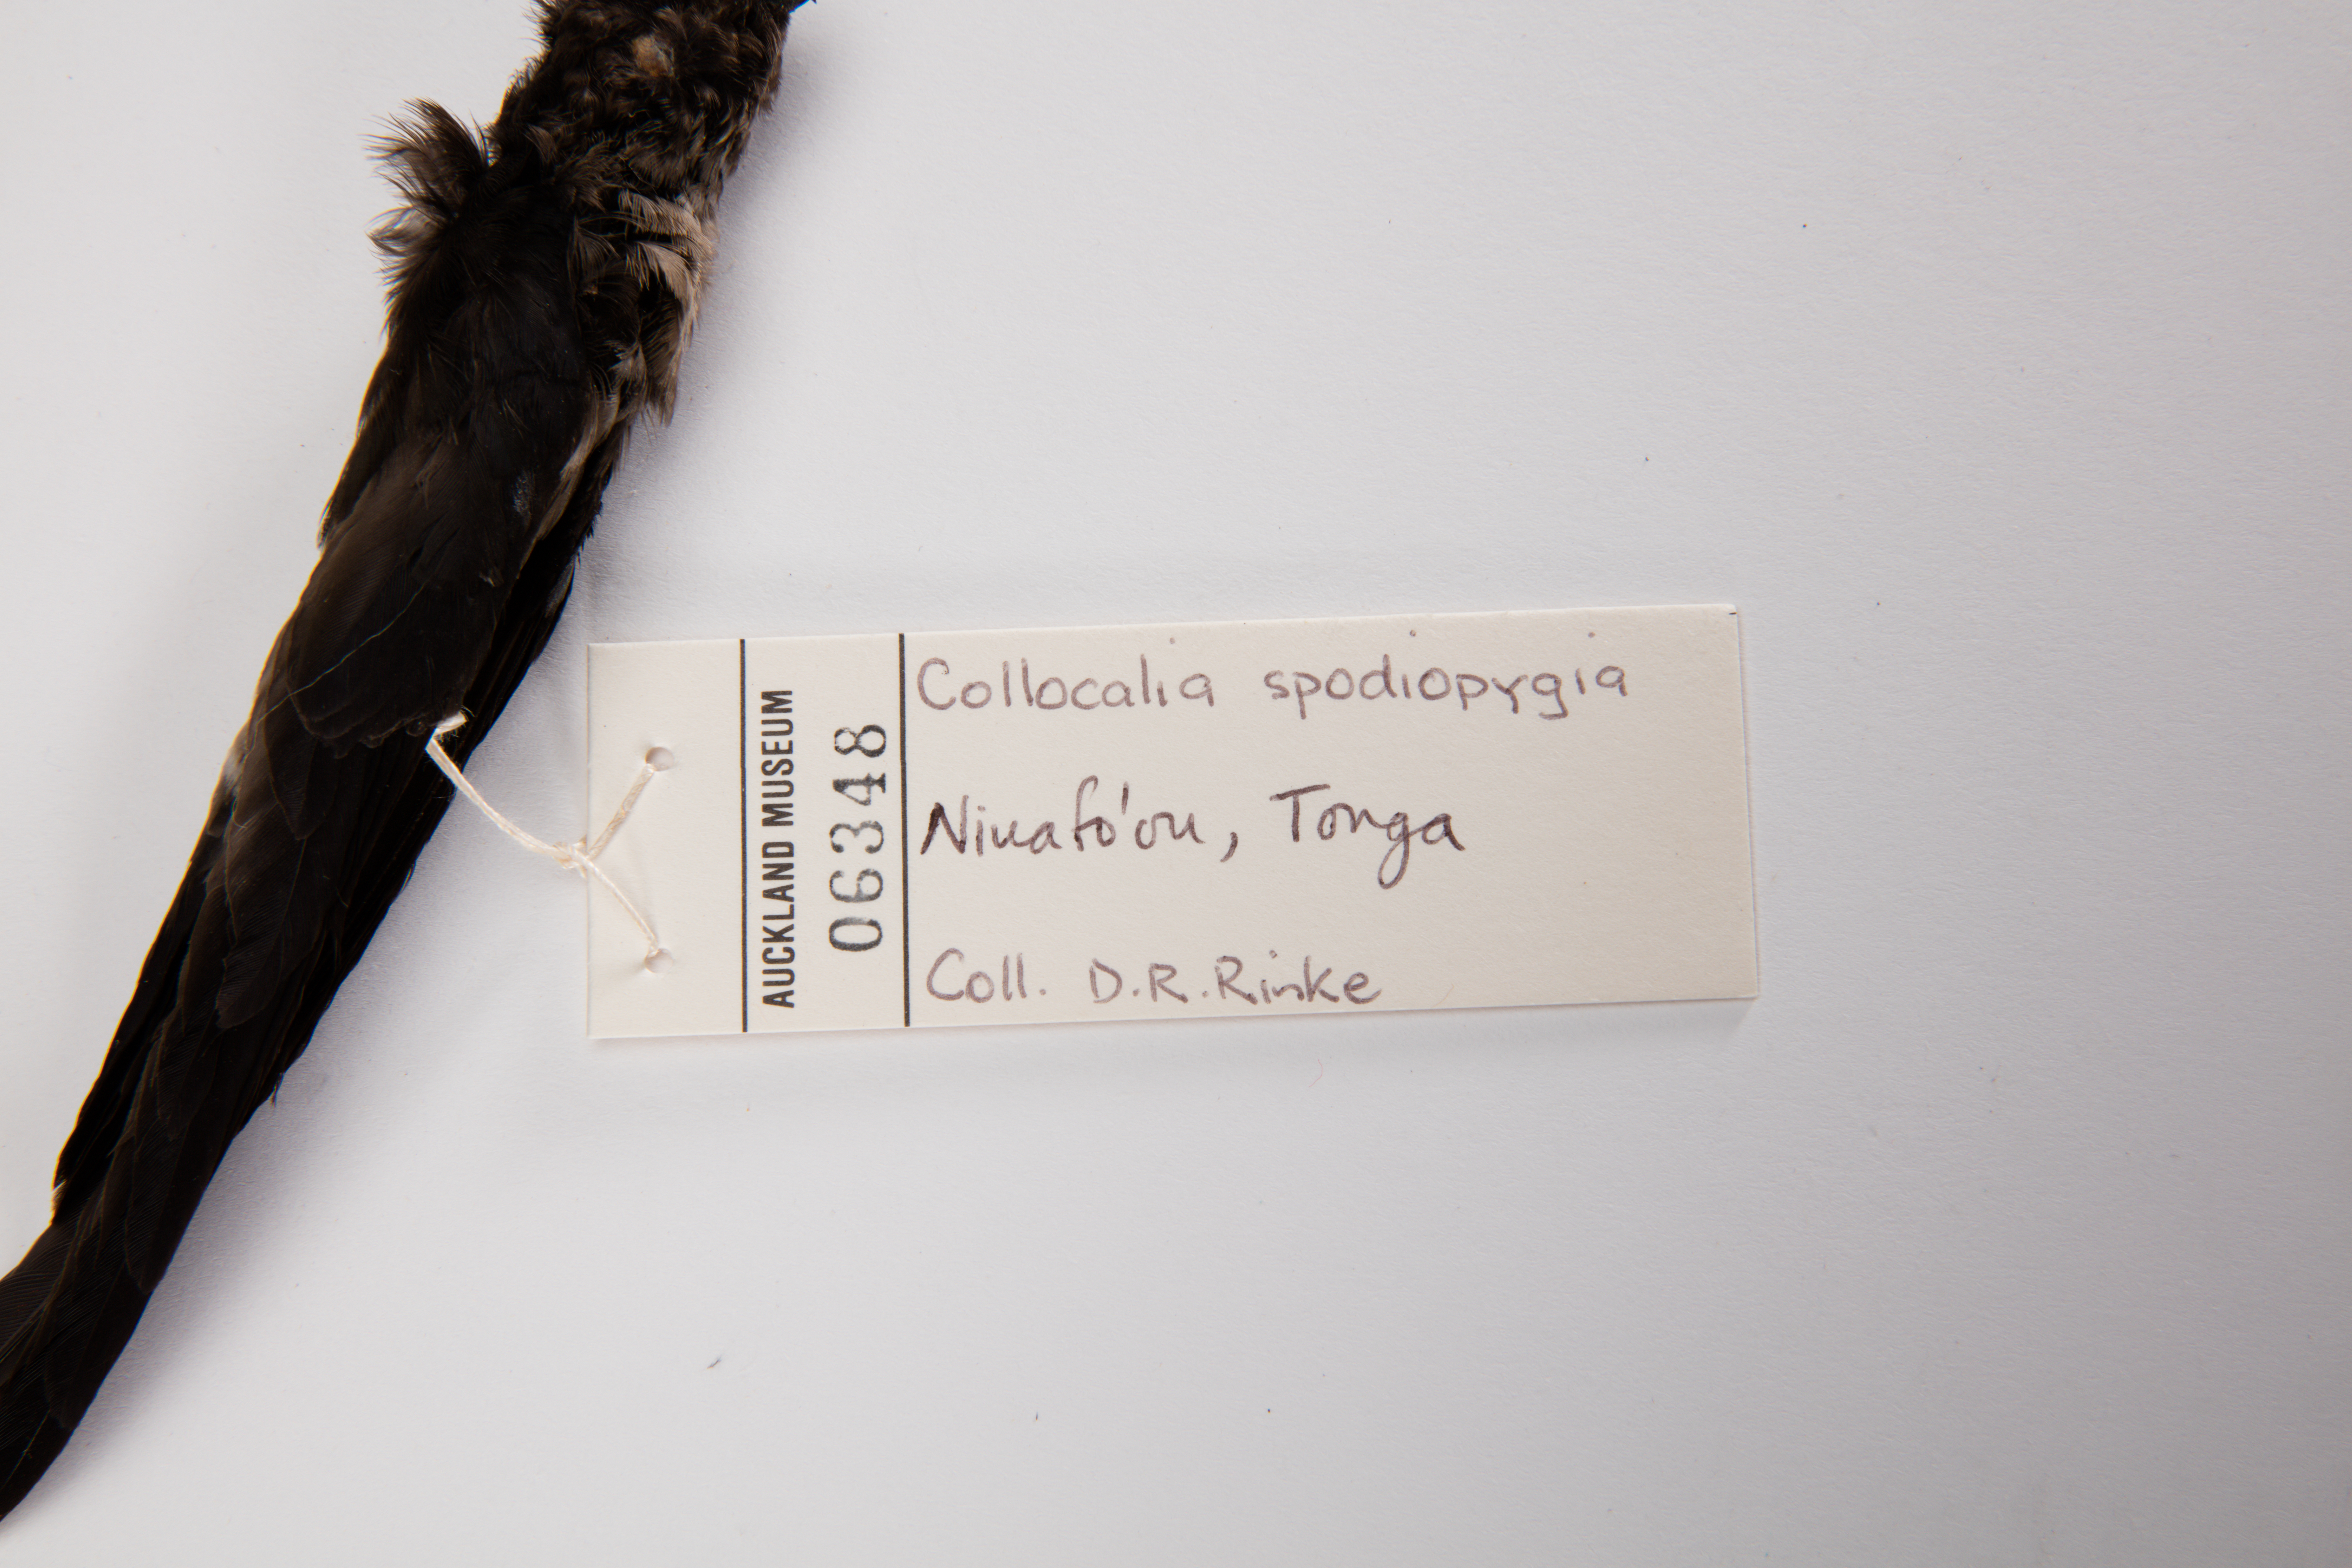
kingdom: Animalia
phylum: Chordata
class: Aves
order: Apodiformes
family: Apodidae
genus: Aerodramus
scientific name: Aerodramus spodiopygius
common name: White-rumped swiftlet
